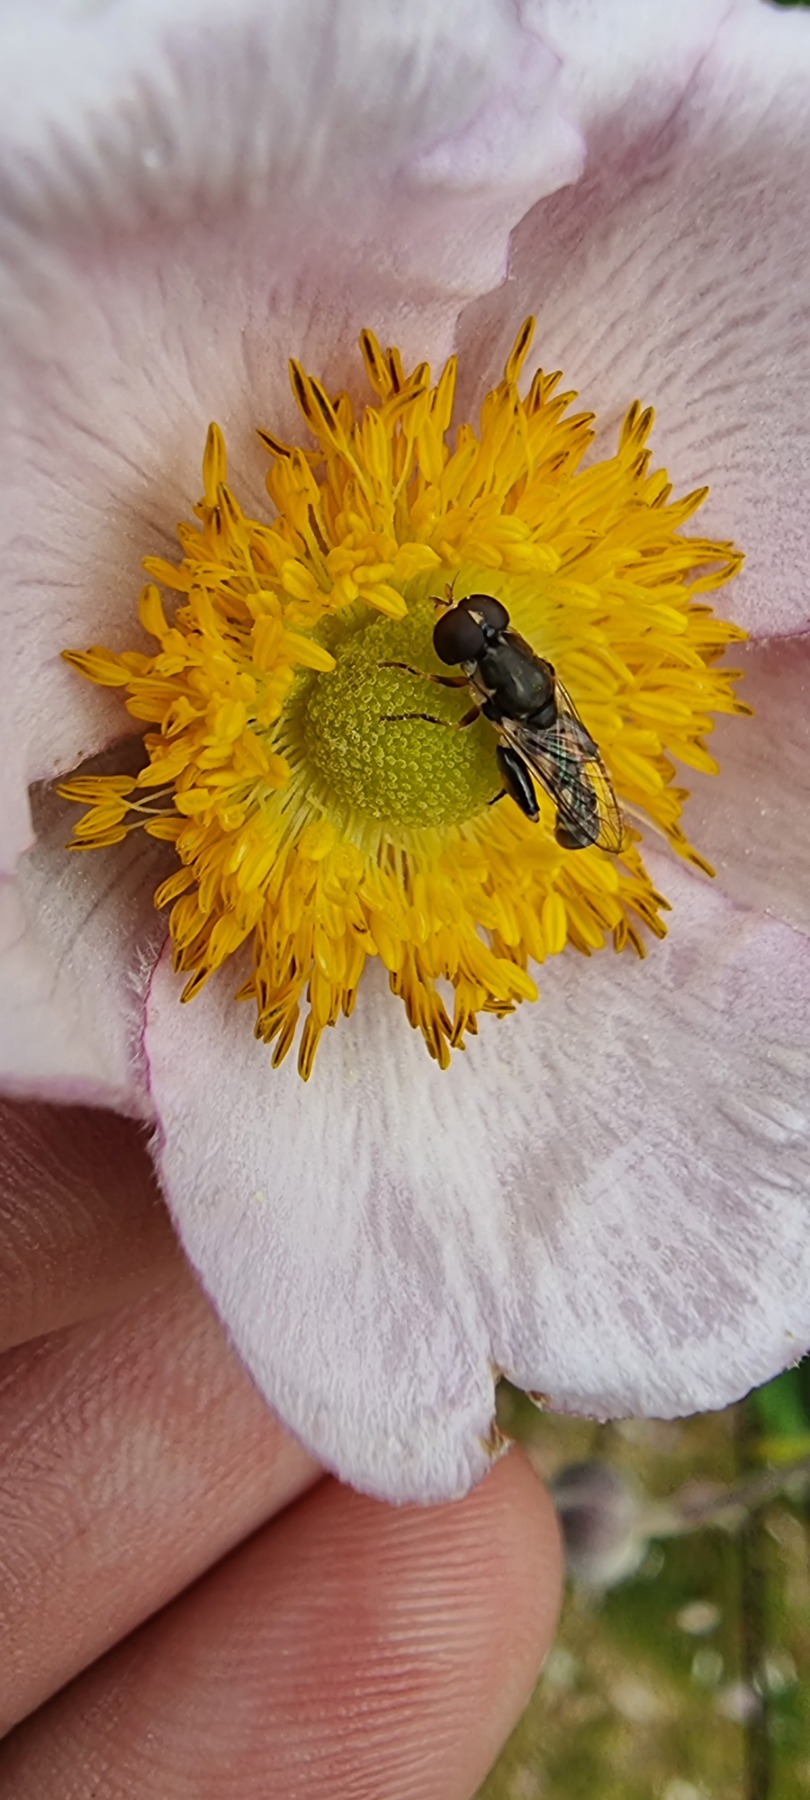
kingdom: Animalia
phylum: Arthropoda
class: Insecta
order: Diptera
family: Syrphidae
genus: Syritta
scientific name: Syritta pipiens
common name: Kompost-svirreflue
